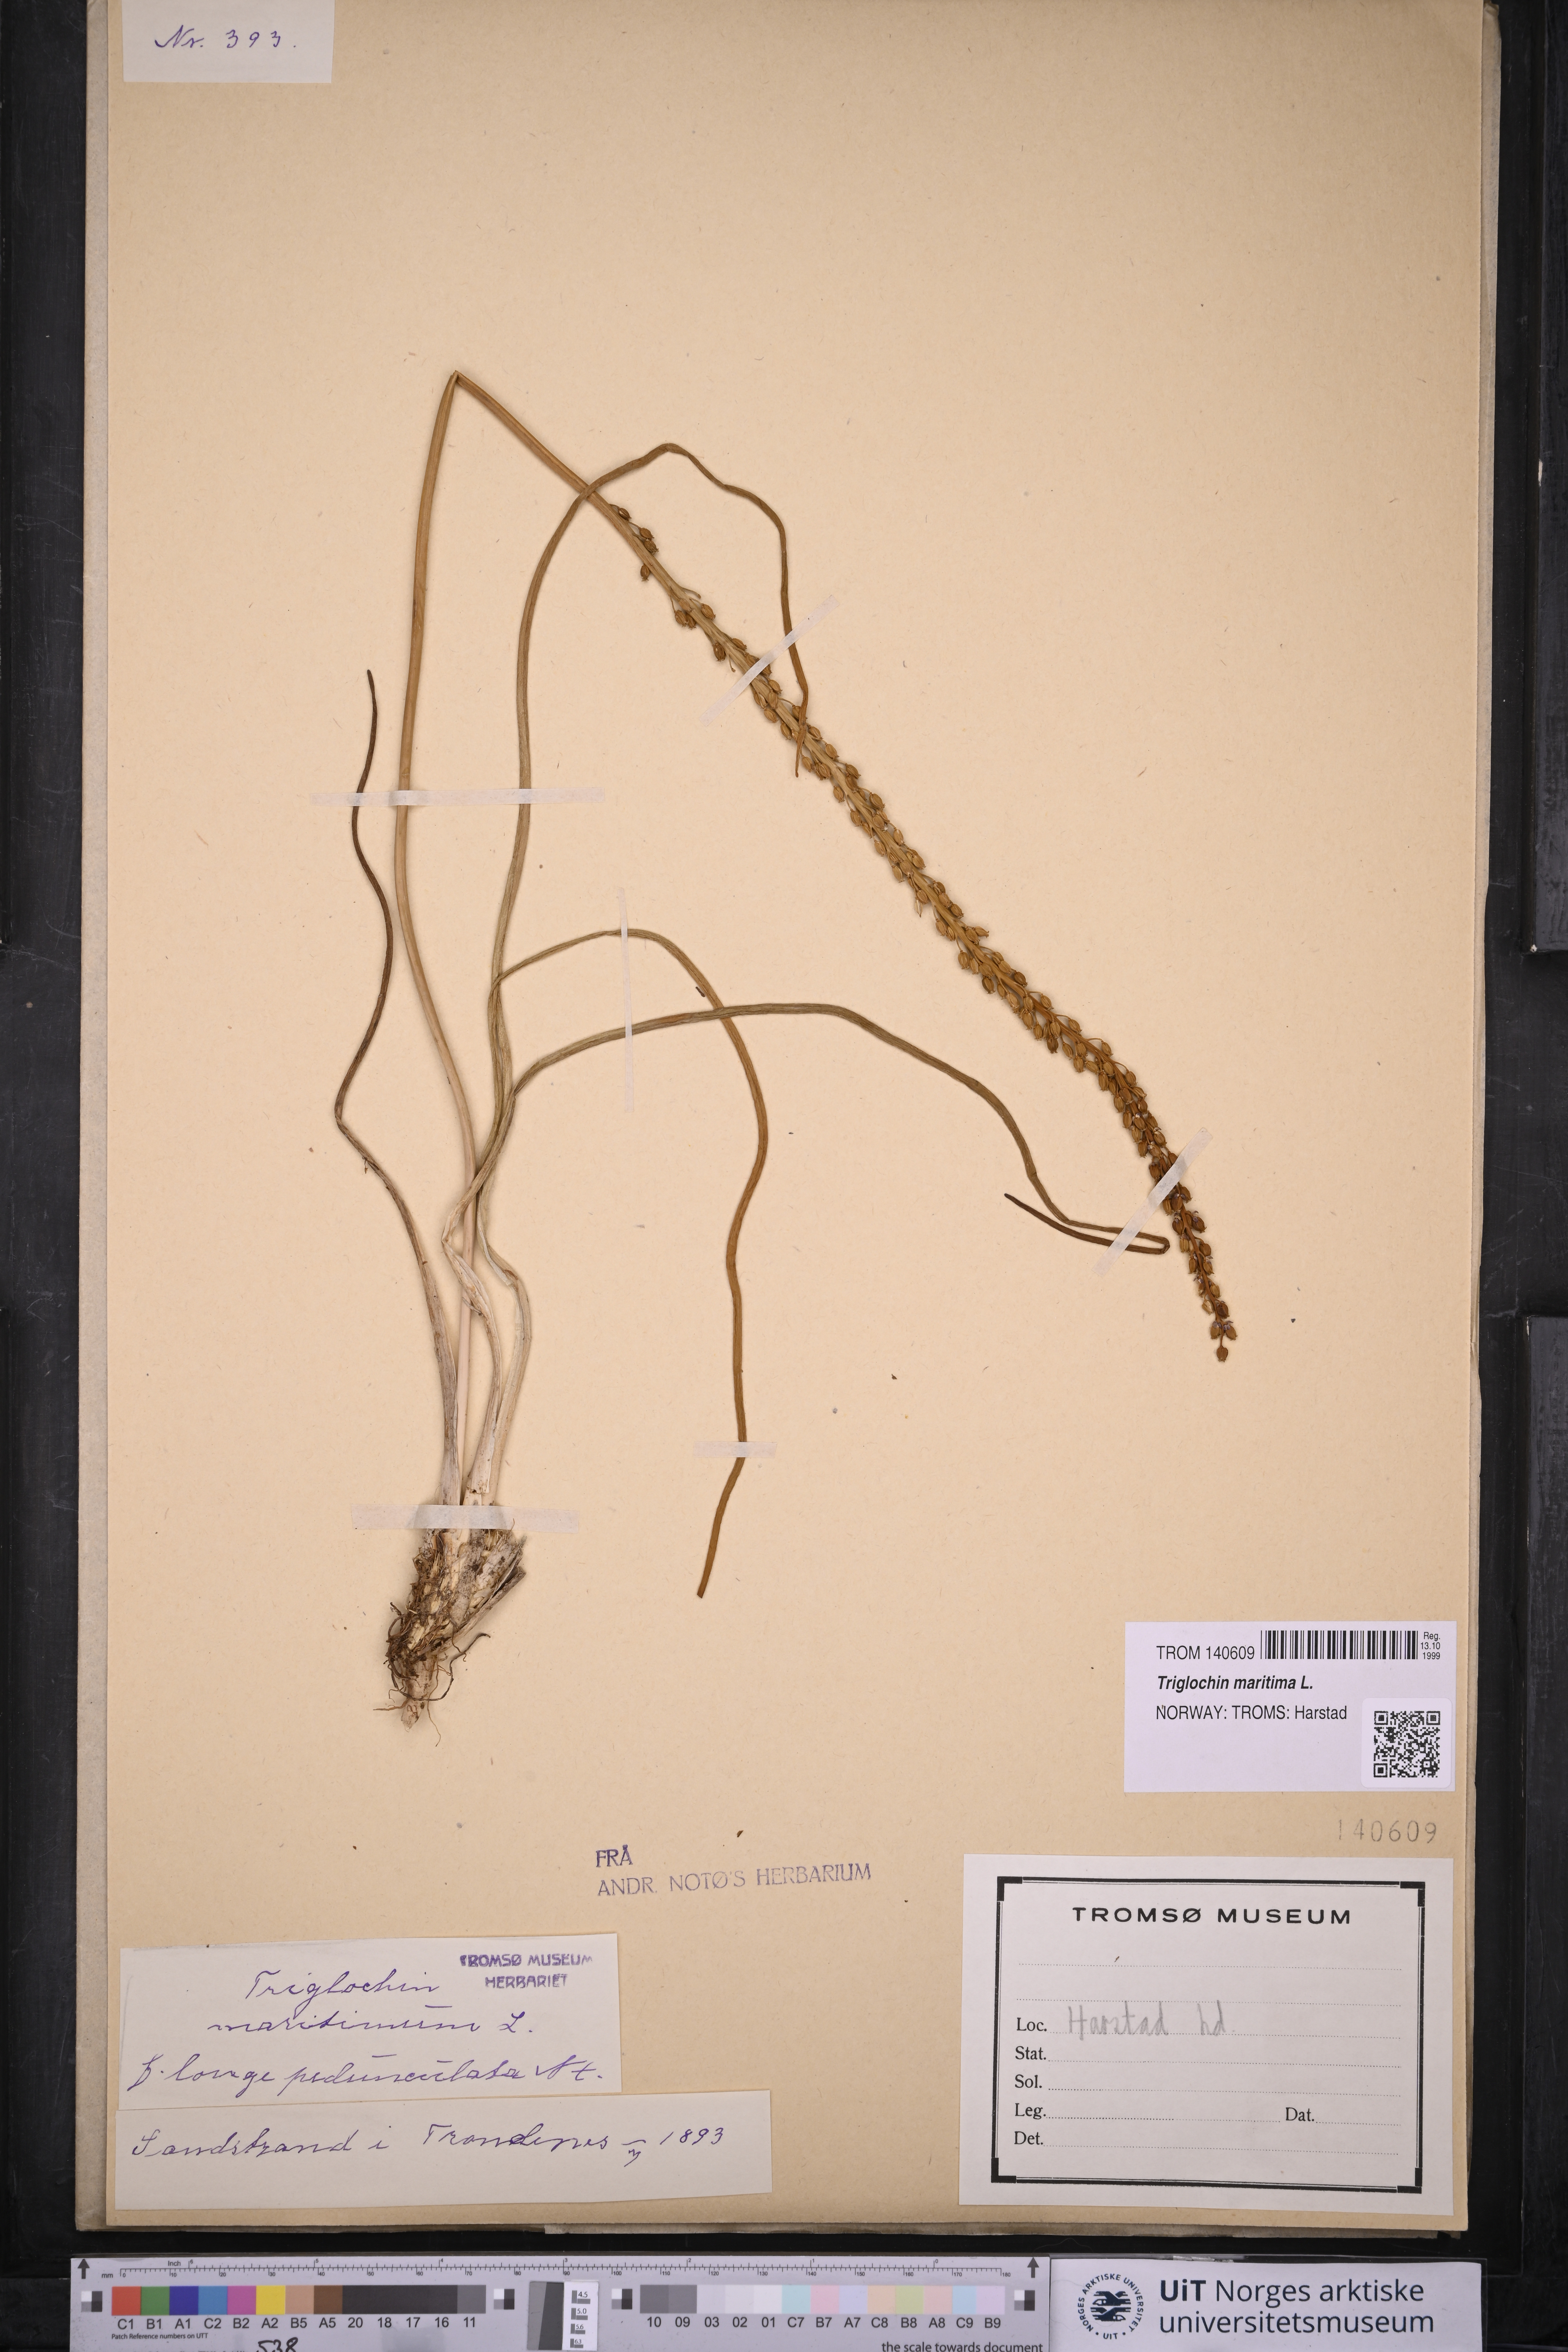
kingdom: Plantae
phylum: Tracheophyta
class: Liliopsida
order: Alismatales
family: Juncaginaceae
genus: Triglochin
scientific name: Triglochin maritima
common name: Sea arrowgrass
